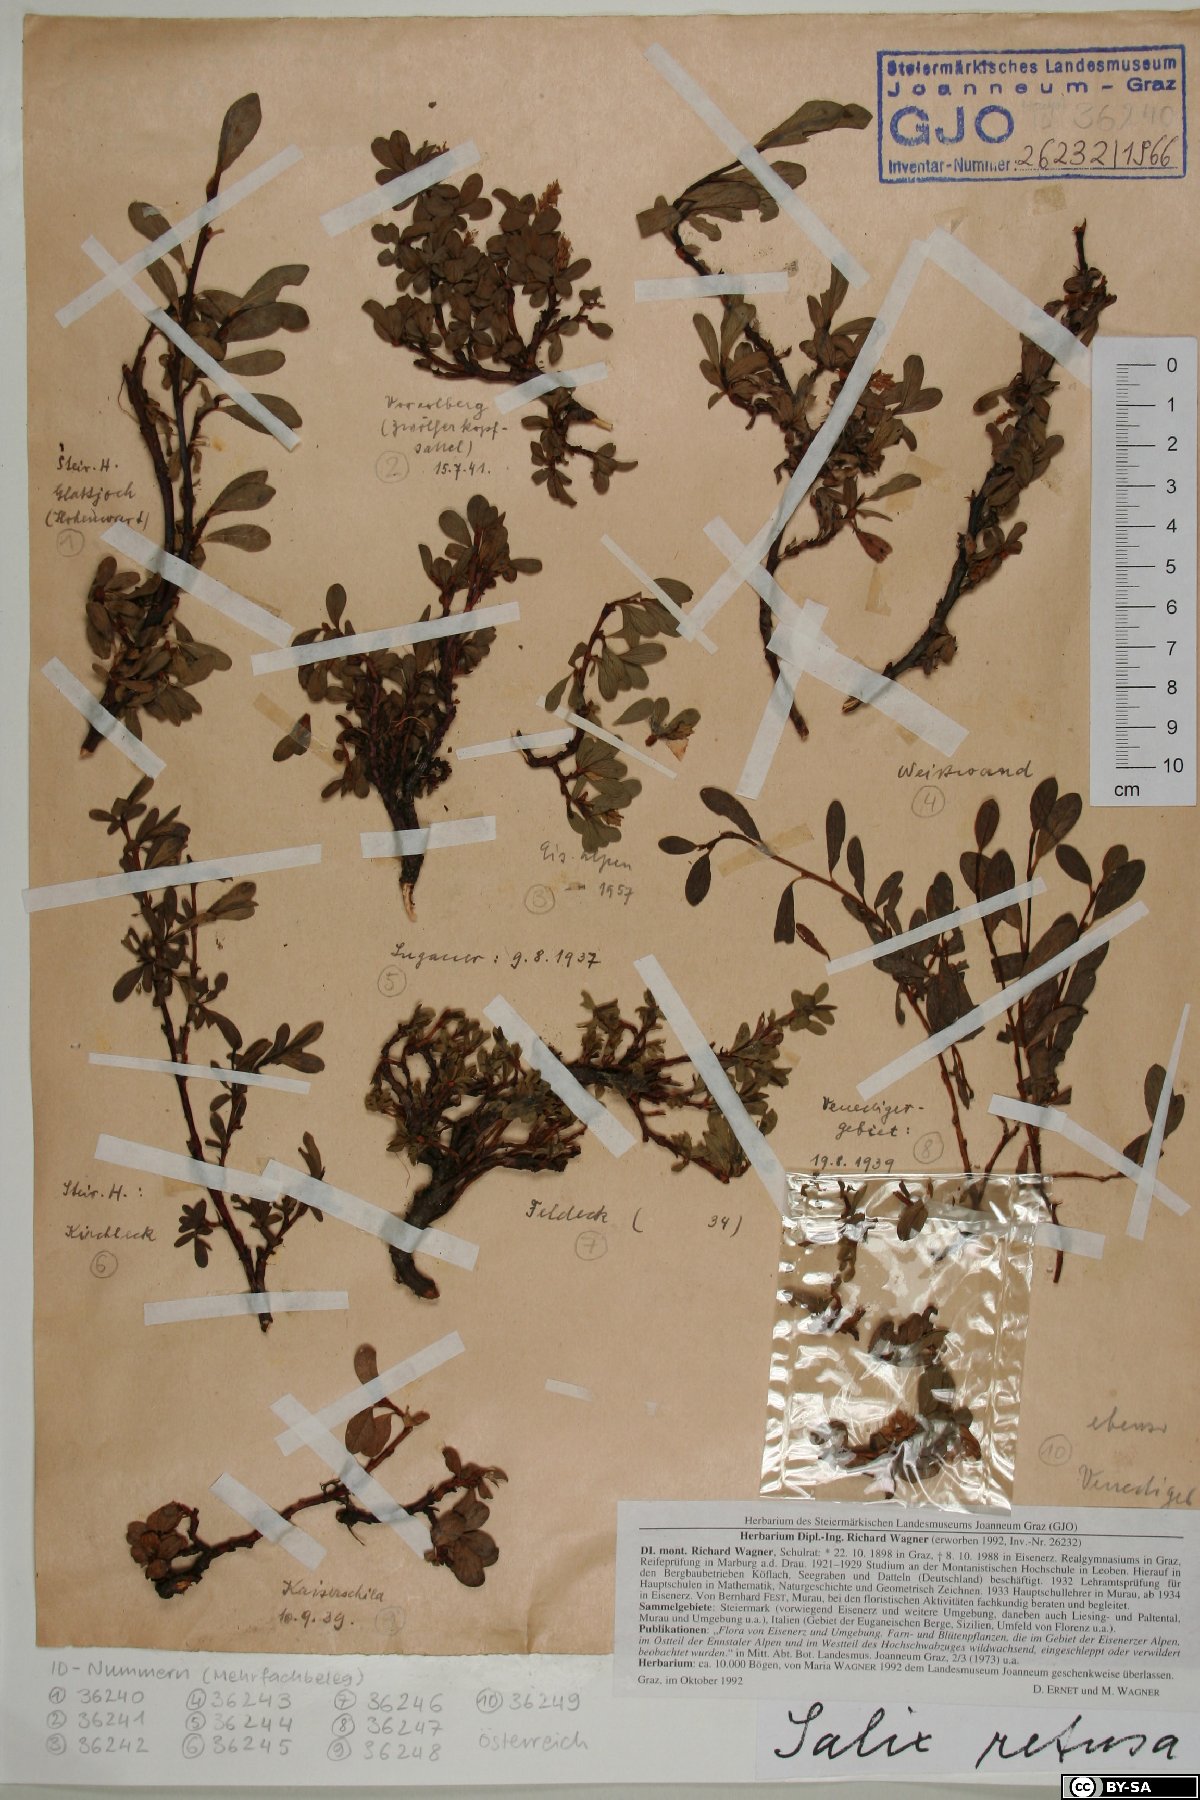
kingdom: Plantae
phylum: Tracheophyta
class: Magnoliopsida
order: Malpighiales
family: Salicaceae
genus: Salix
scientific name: Salix retusa
